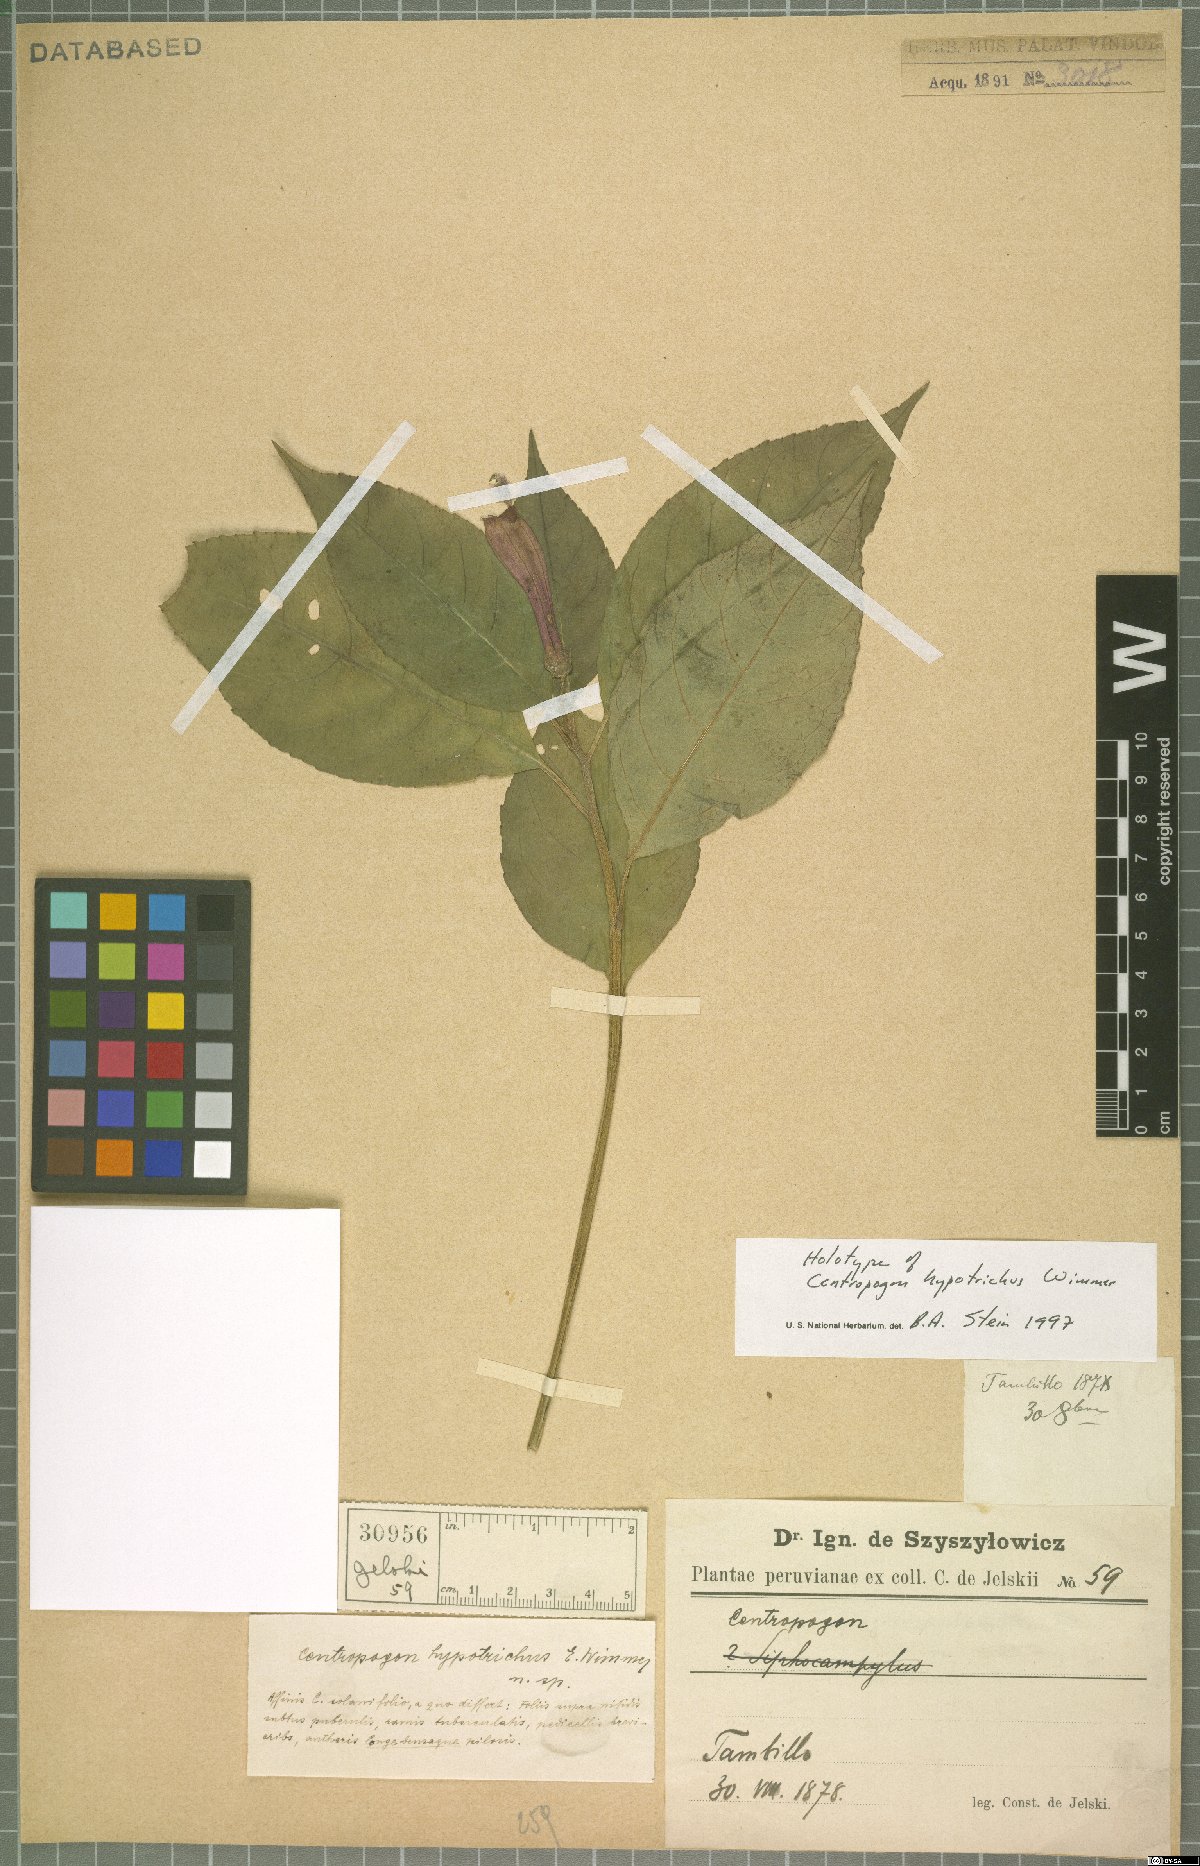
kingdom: Plantae
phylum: Tracheophyta
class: Magnoliopsida
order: Asterales
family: Campanulaceae
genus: Centropogon
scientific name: Centropogon hypotrichus
